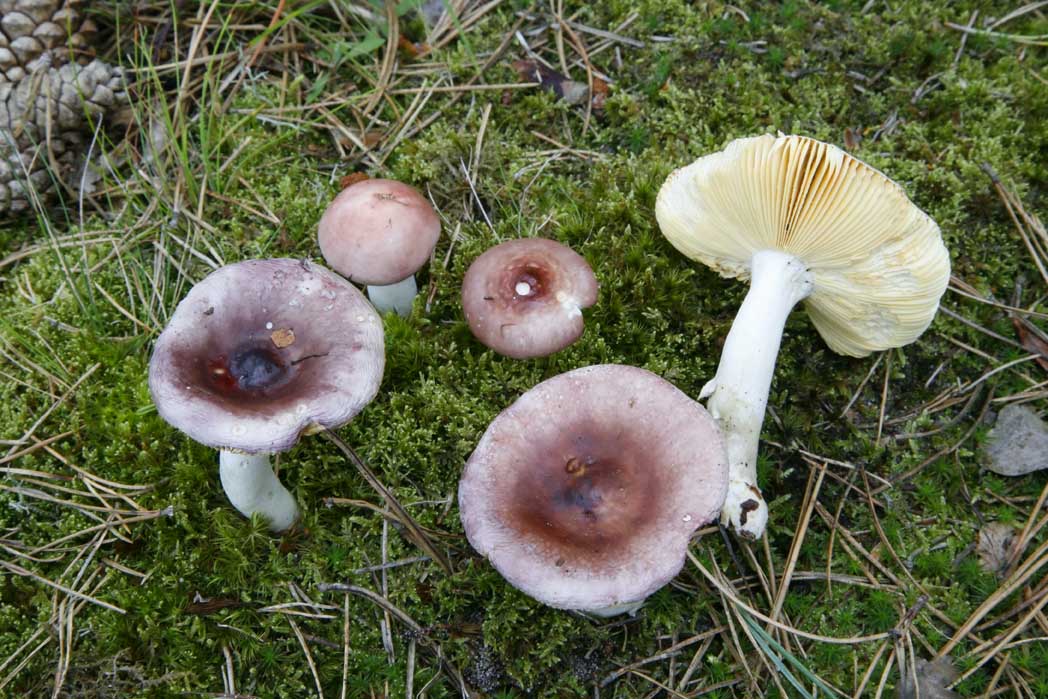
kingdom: Fungi
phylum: Basidiomycota
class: Agaricomycetes
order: Russulales
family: Russulaceae
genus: Russula
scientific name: Russula caerulea
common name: puklet skørhat
